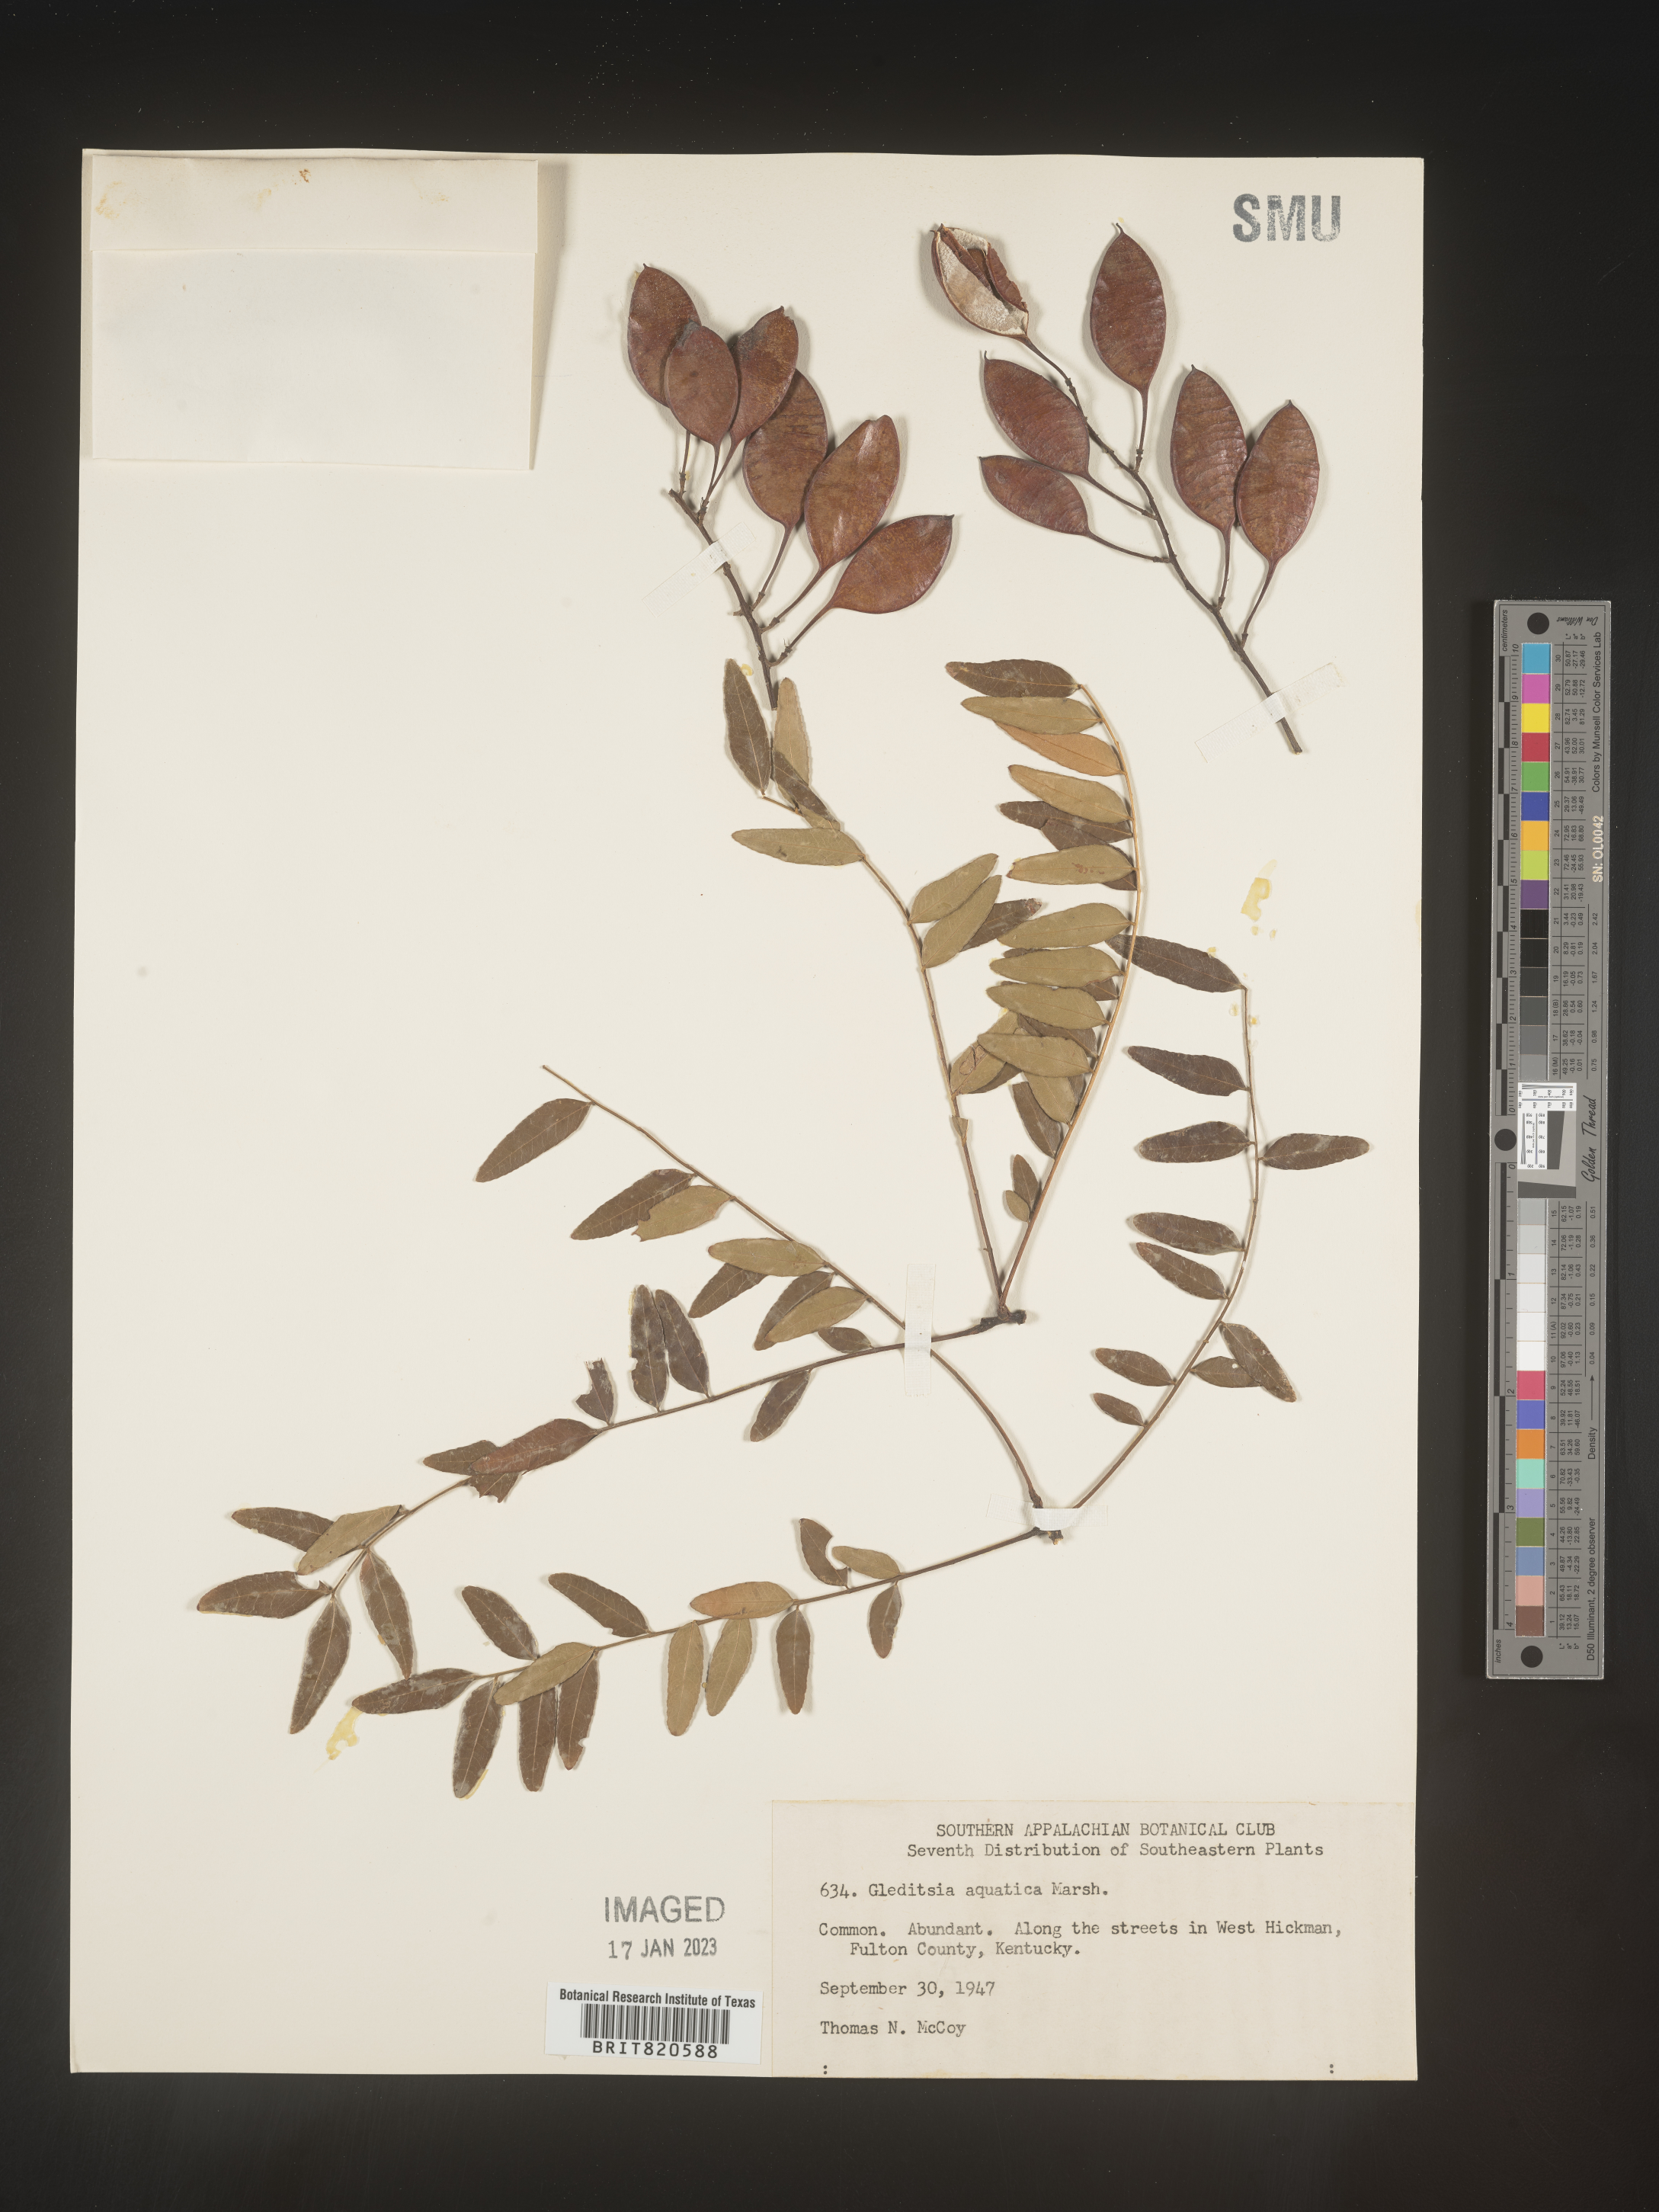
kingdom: Plantae
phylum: Tracheophyta
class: Magnoliopsida
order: Fabales
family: Fabaceae
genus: Gleditsia
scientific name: Gleditsia aquatica
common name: Swamp-locust
